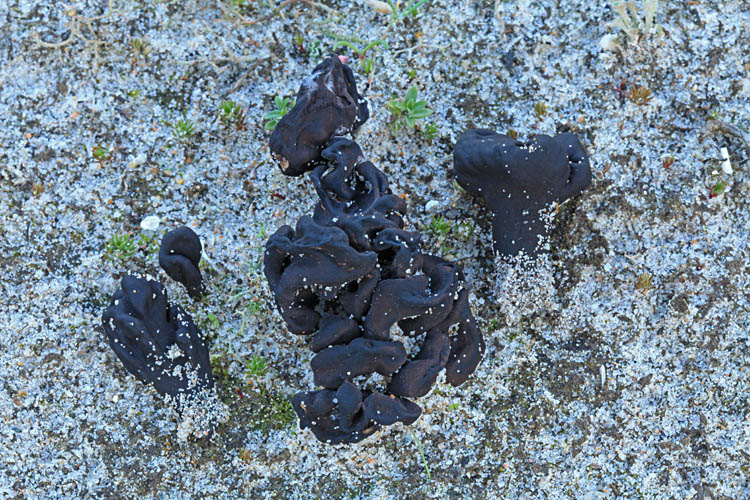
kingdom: Fungi
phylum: Ascomycota
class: Geoglossomycetes
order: Geoglossales
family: Geoglossaceae
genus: Sabuloglossum
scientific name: Sabuloglossum arenarium
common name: klit-jordtunge
